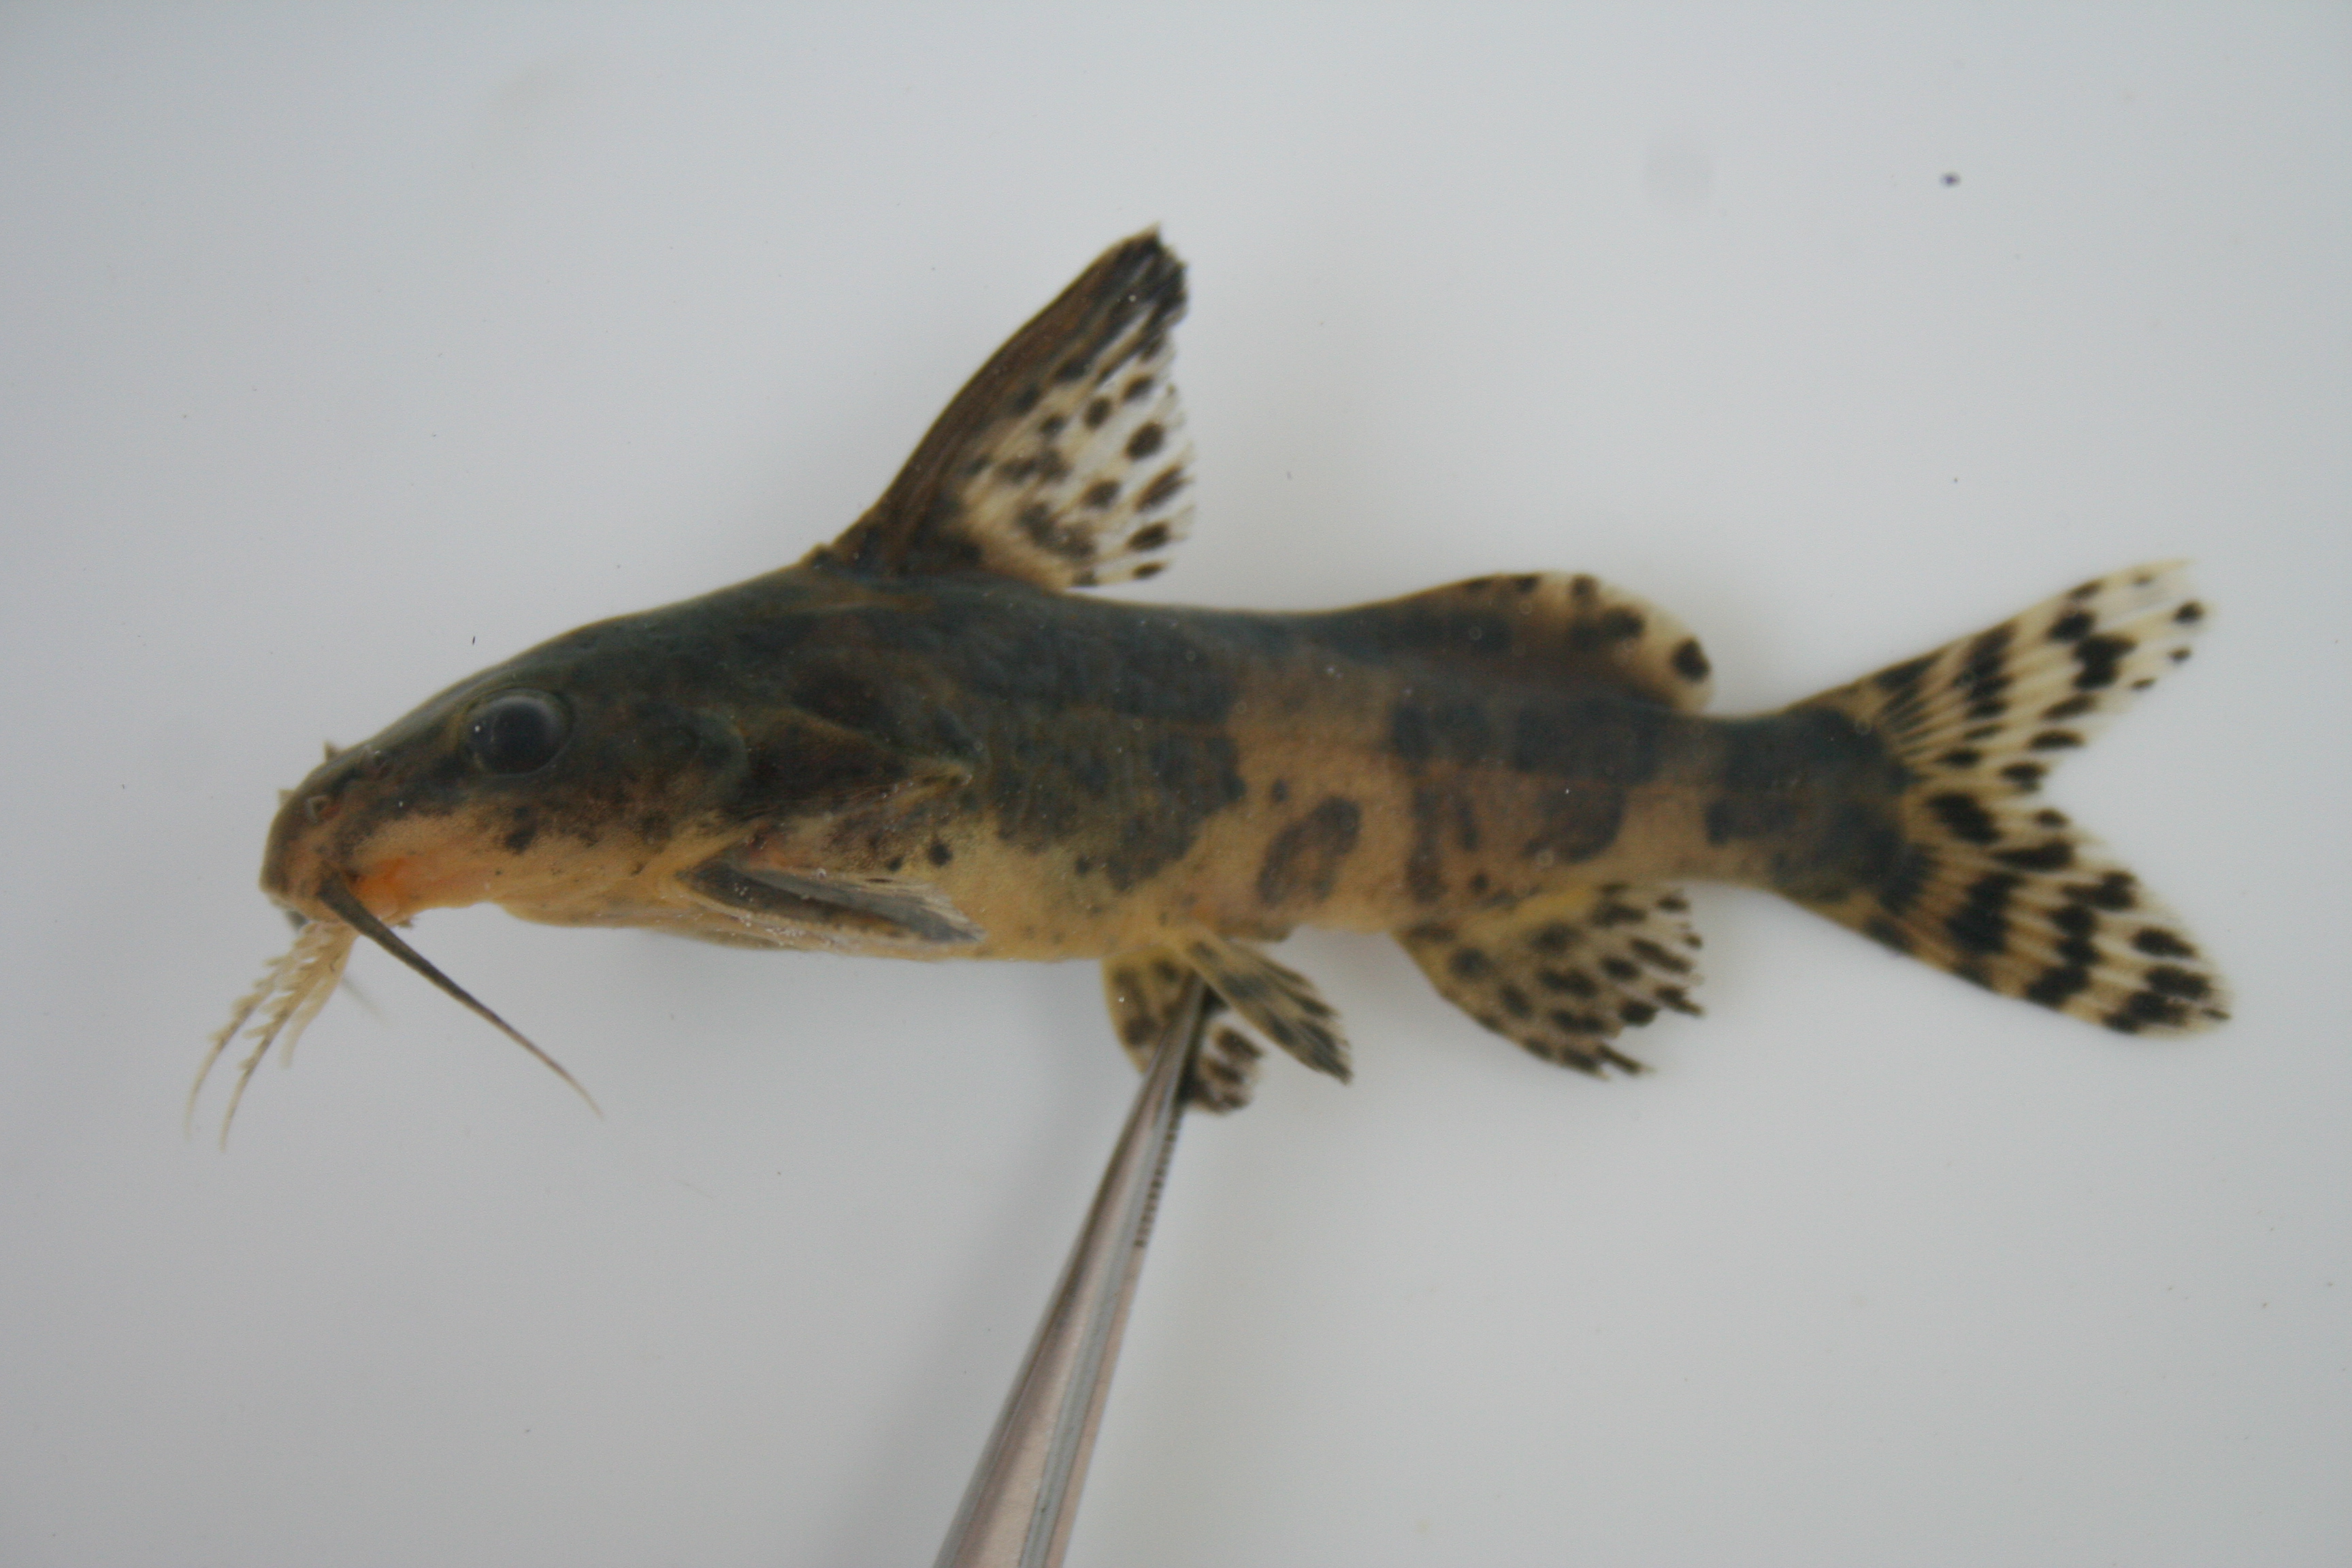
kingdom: Animalia
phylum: Chordata
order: Siluriformes
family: Mochokidae
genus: Synodontis
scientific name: Synodontis
